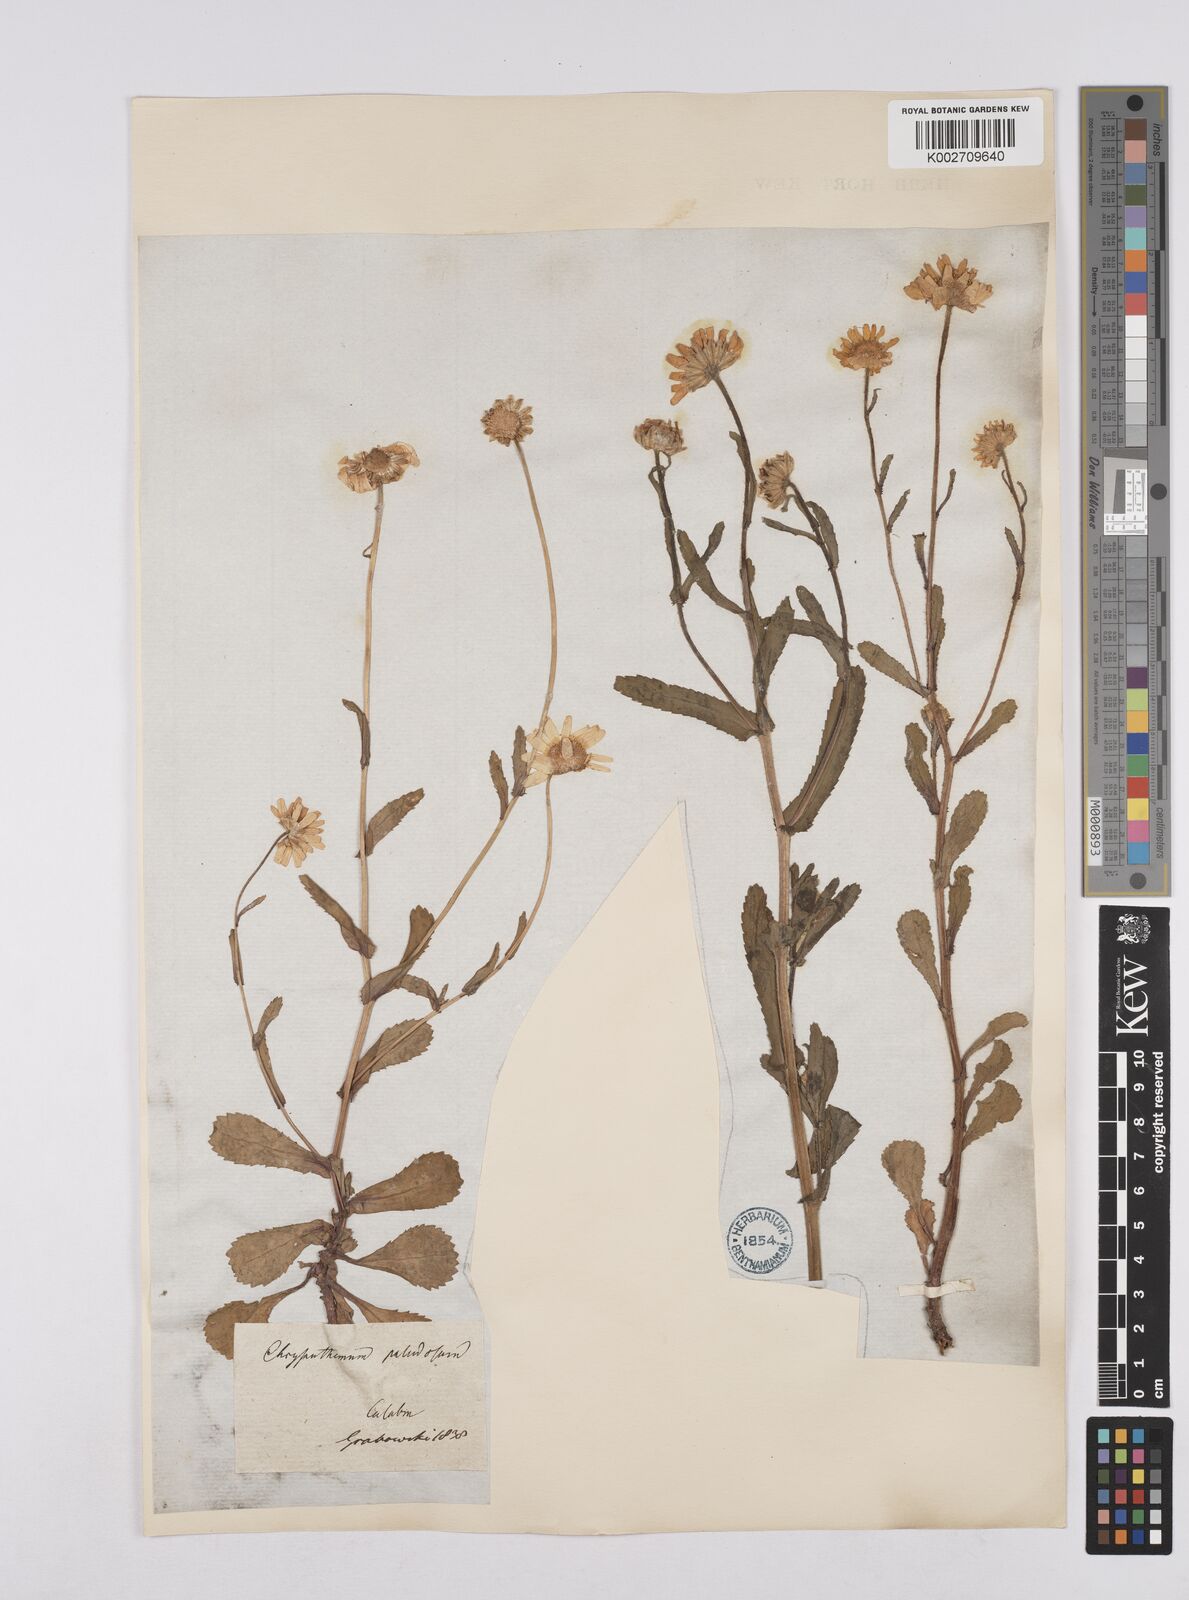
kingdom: Plantae
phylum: Tracheophyta
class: Magnoliopsida
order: Asterales
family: Asteraceae
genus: Coleostephus
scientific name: Coleostephus myconis
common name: Mediterranean marigold
